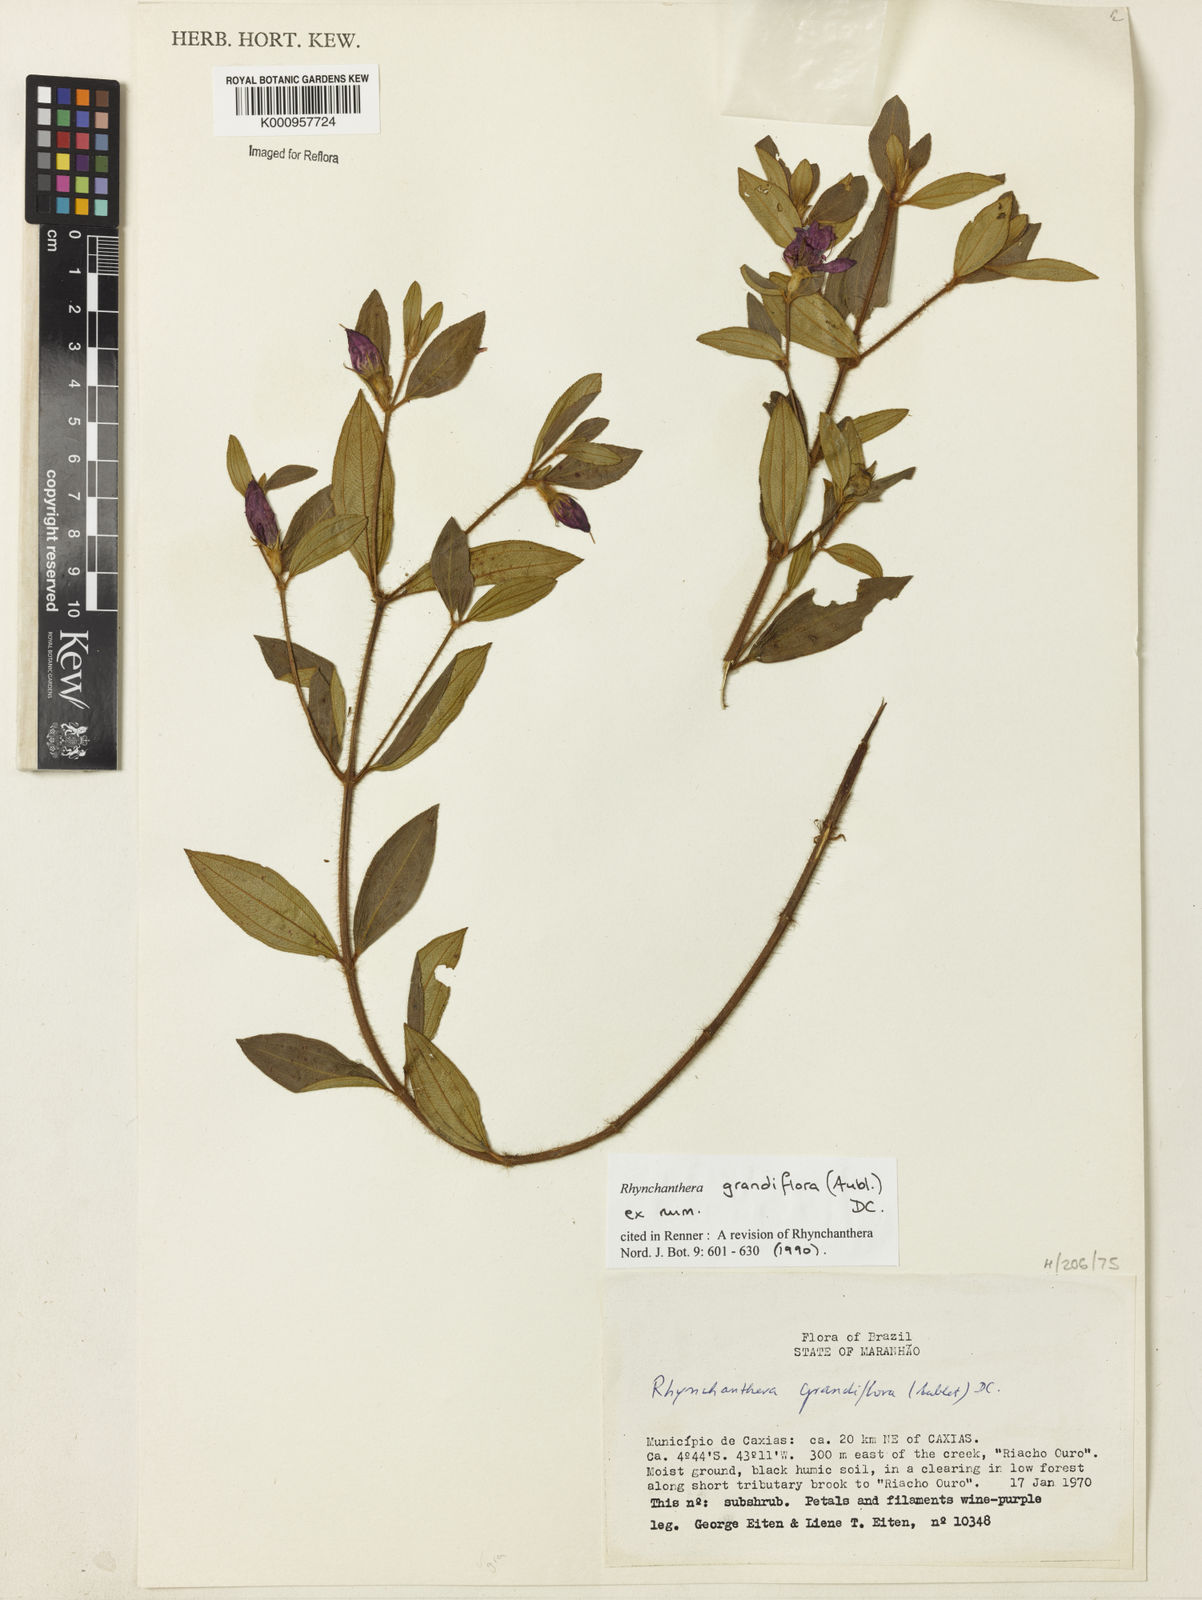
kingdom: Plantae
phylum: Tracheophyta
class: Magnoliopsida
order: Myrtales
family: Melastomataceae
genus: Rhynchanthera
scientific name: Rhynchanthera grandiflora
